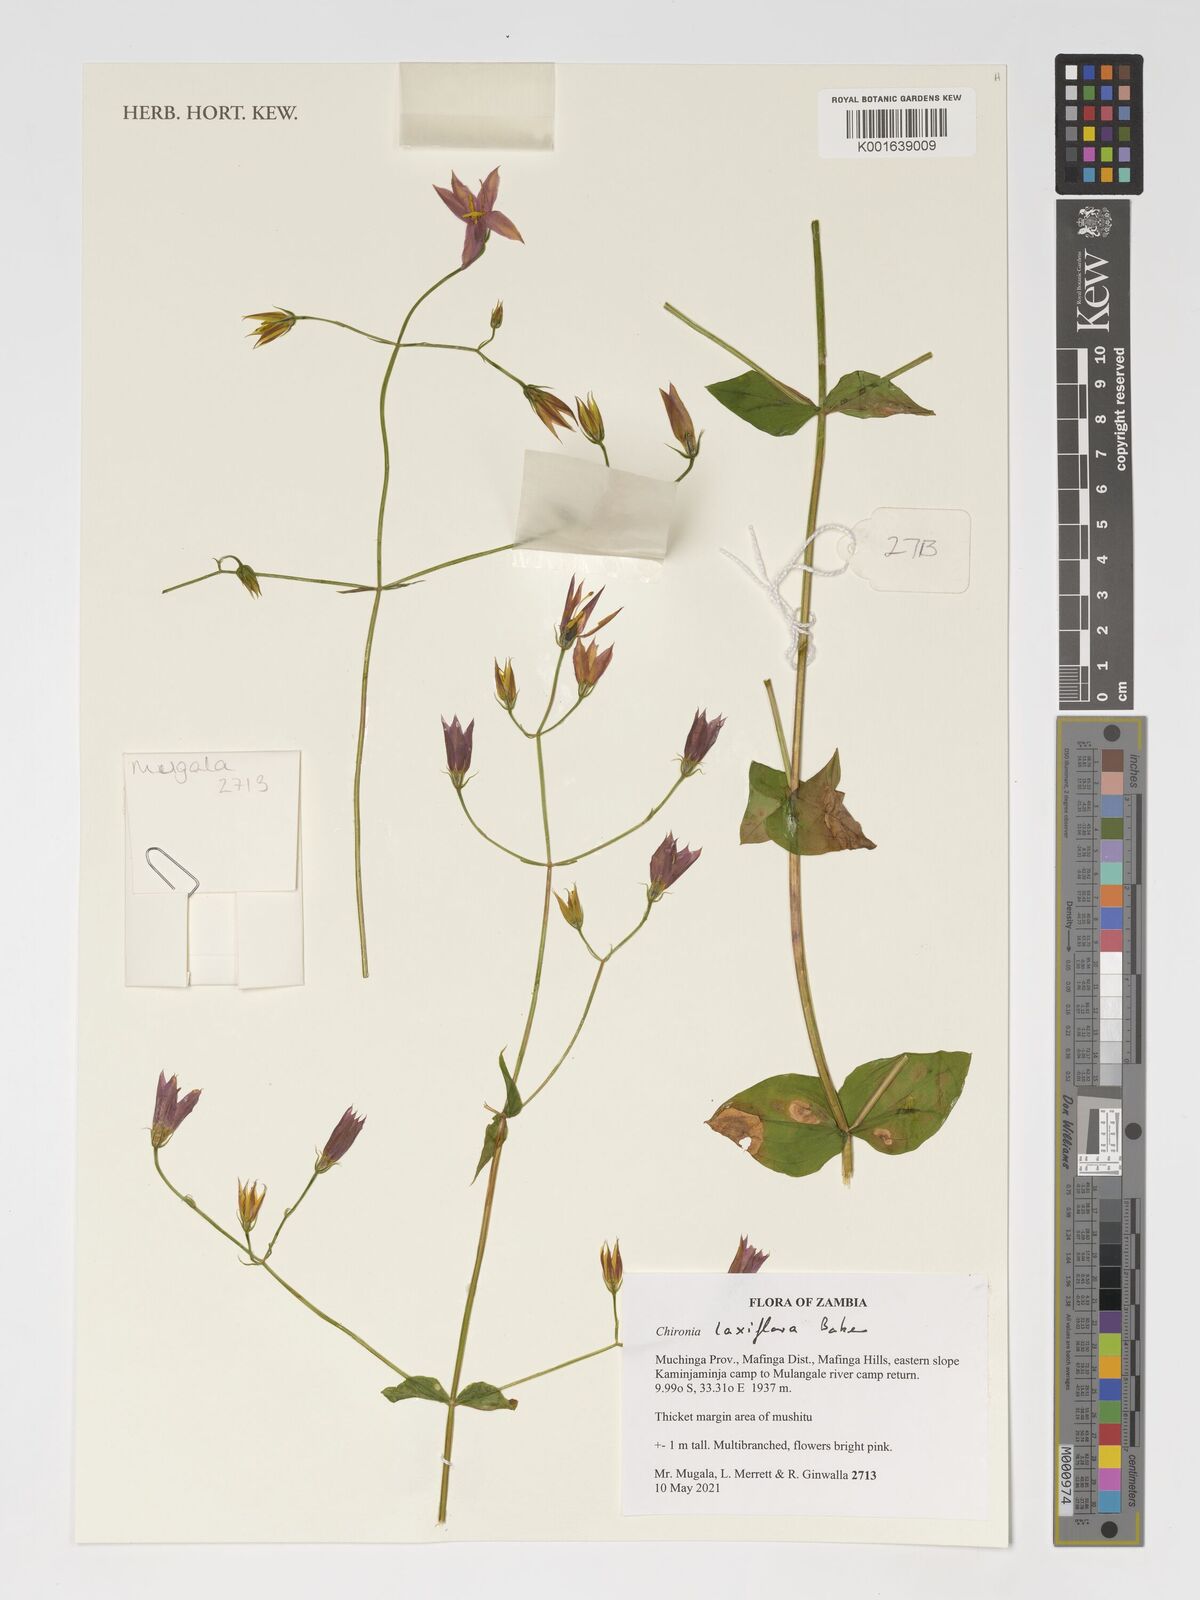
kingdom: Plantae
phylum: Tracheophyta
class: Magnoliopsida
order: Gentianales
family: Gentianaceae
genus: Chironia
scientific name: Chironia laxiflora
